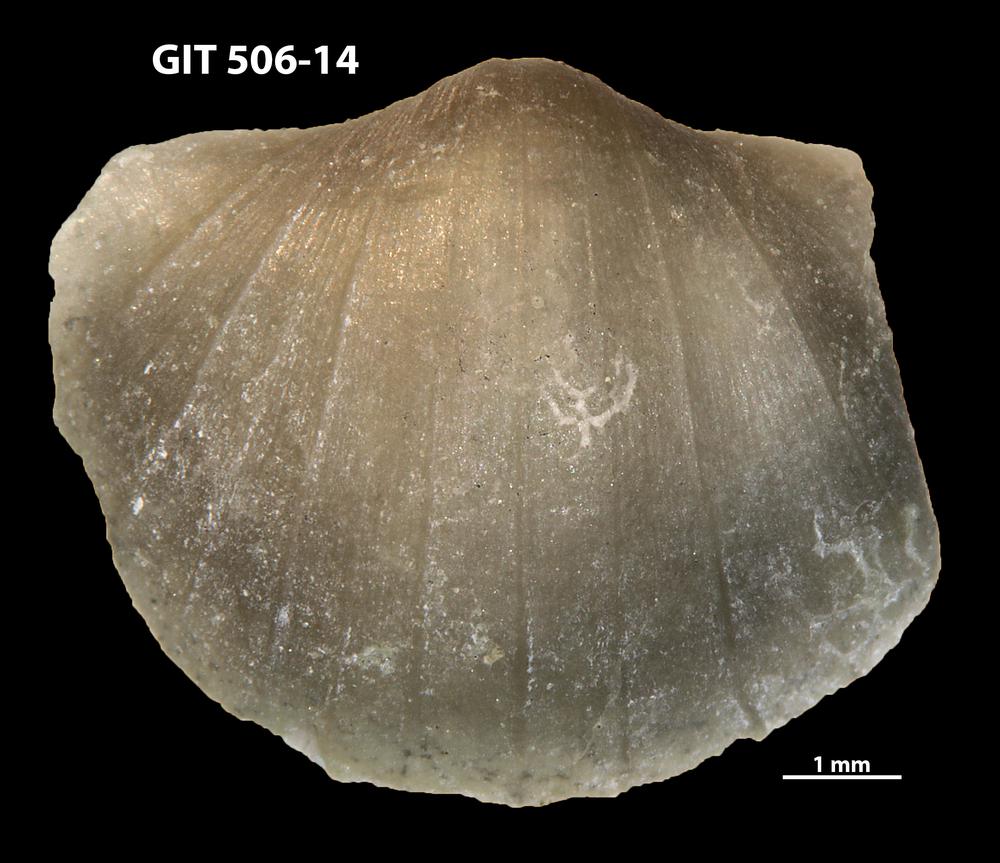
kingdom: Animalia
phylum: Brachiopoda
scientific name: Brachiopoda
